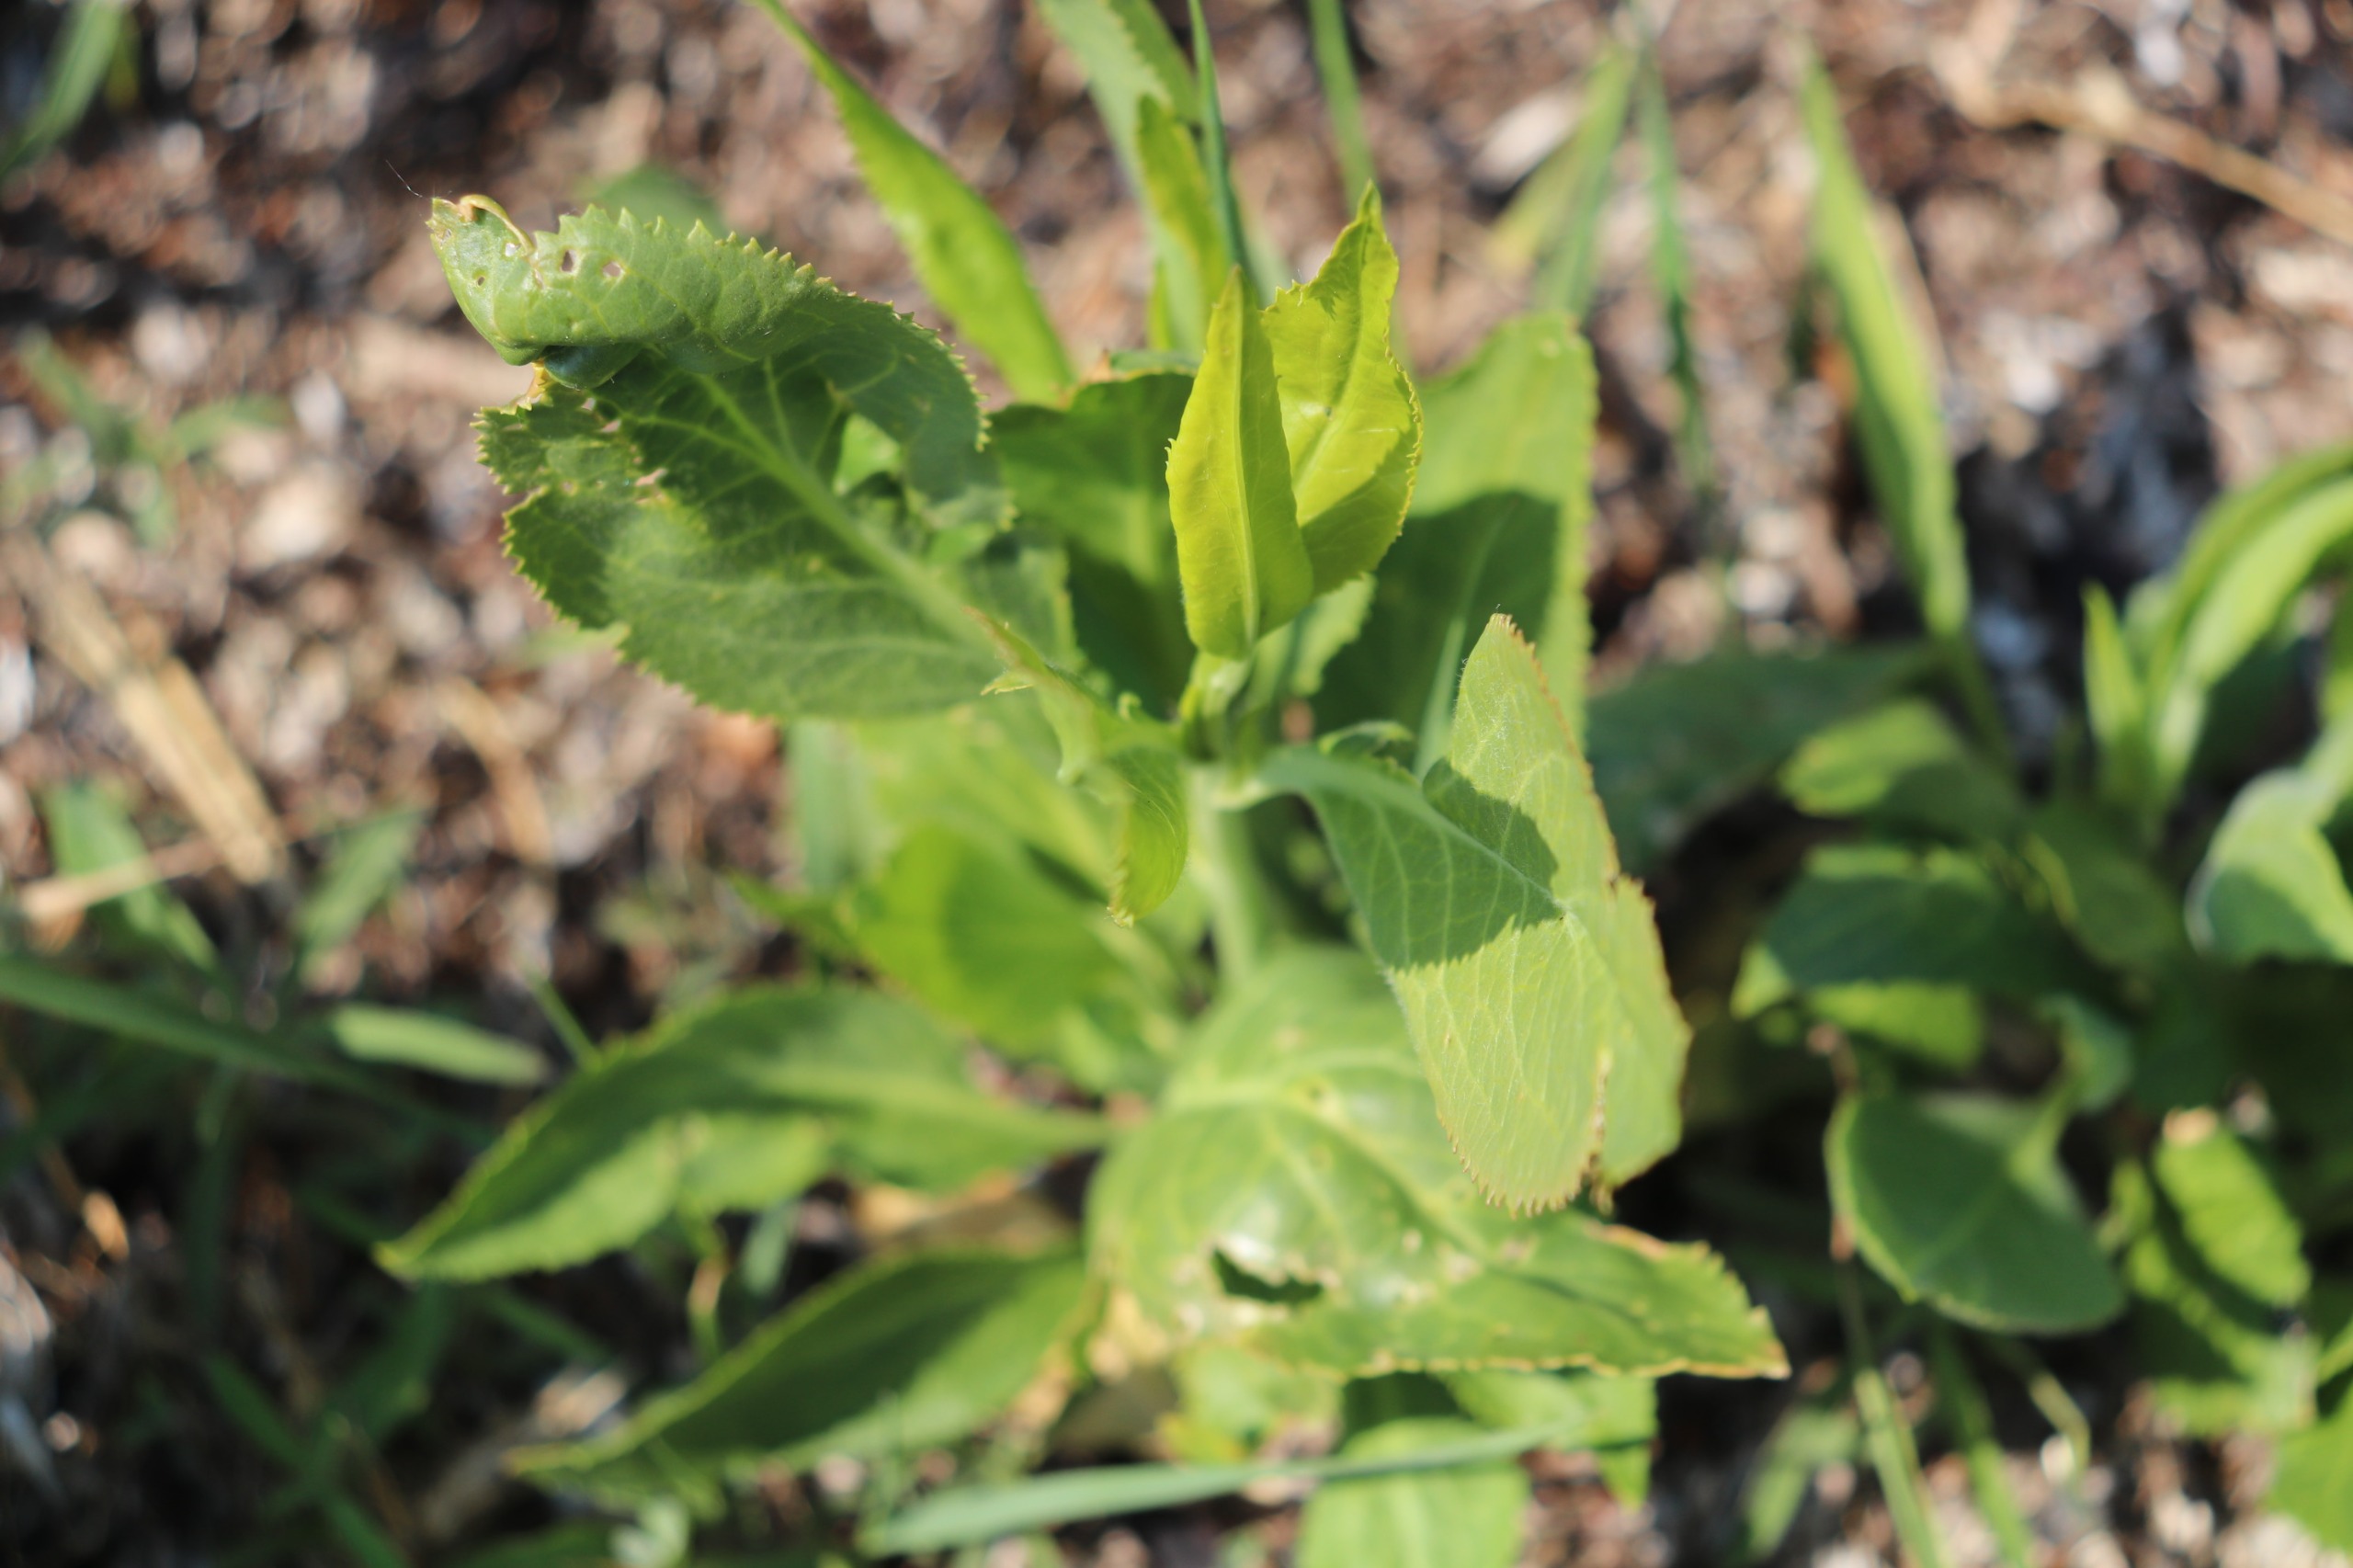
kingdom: Plantae
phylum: Tracheophyta
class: Magnoliopsida
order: Brassicales
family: Brassicaceae
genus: Lepidium
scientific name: Lepidium latifolium
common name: Strand-karse
